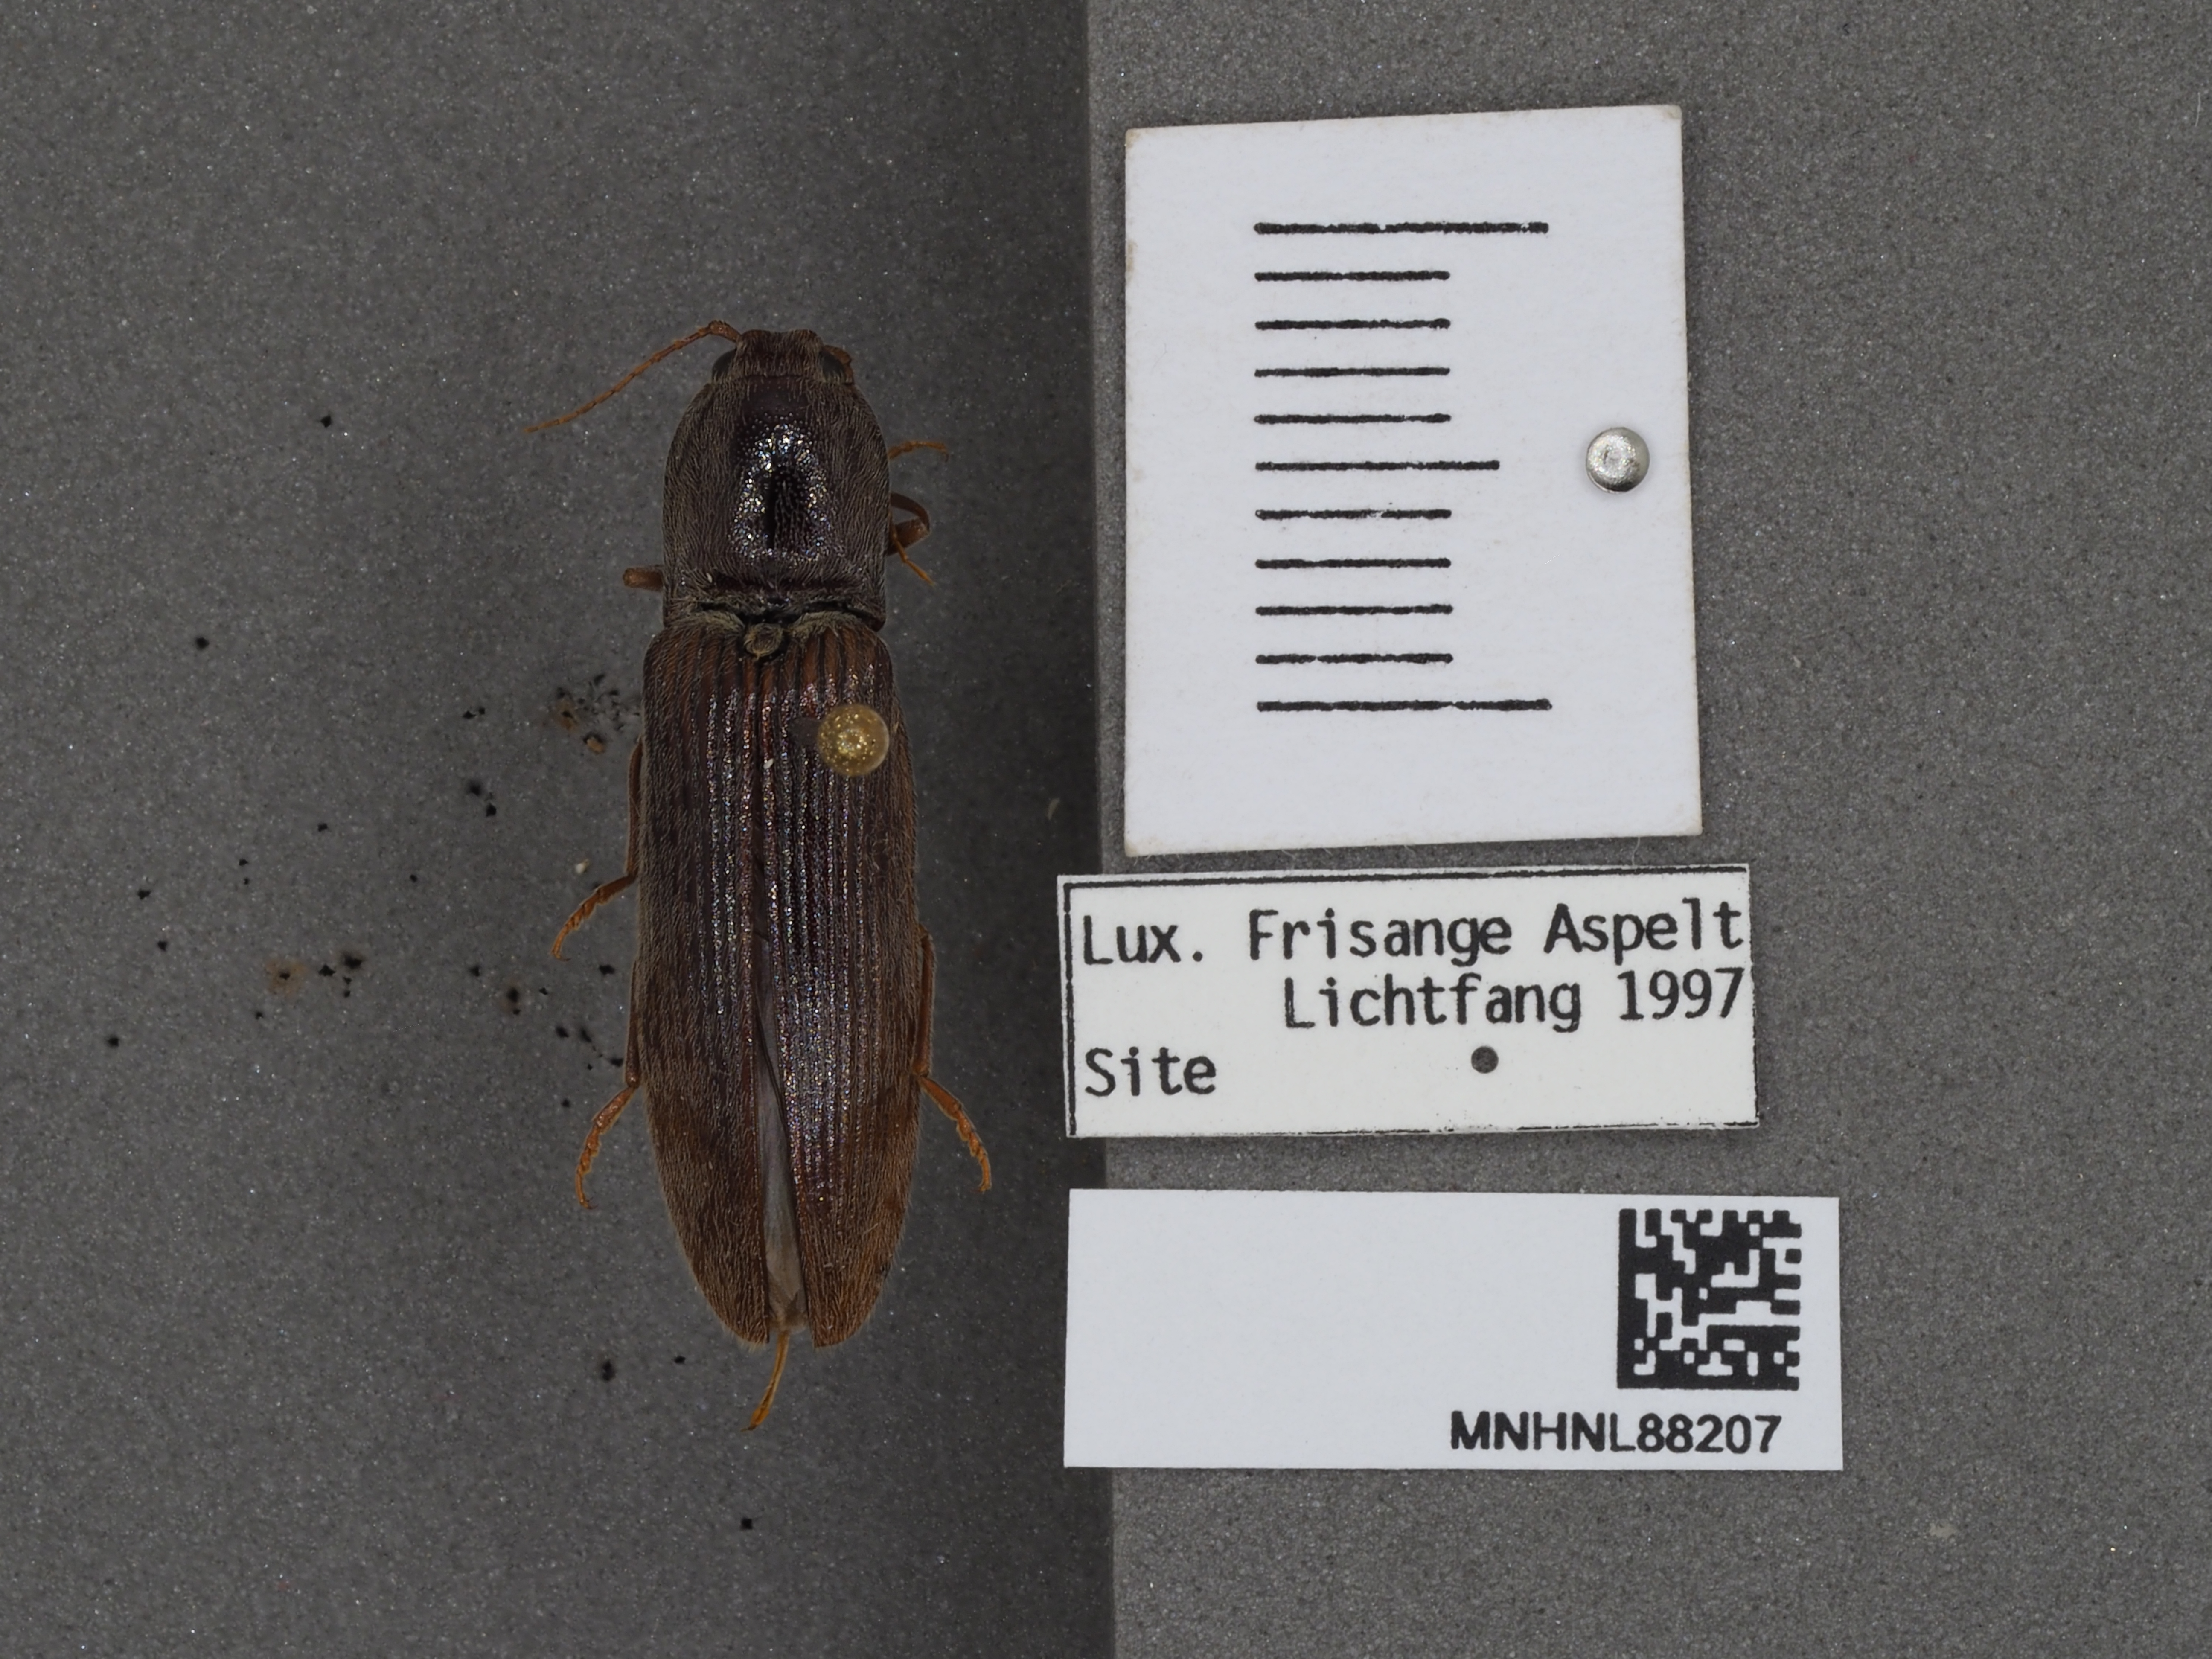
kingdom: Animalia
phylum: Arthropoda
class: Insecta
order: Coleoptera
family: Elateridae
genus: Stenagostus
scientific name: Stenagostus rhombeus
